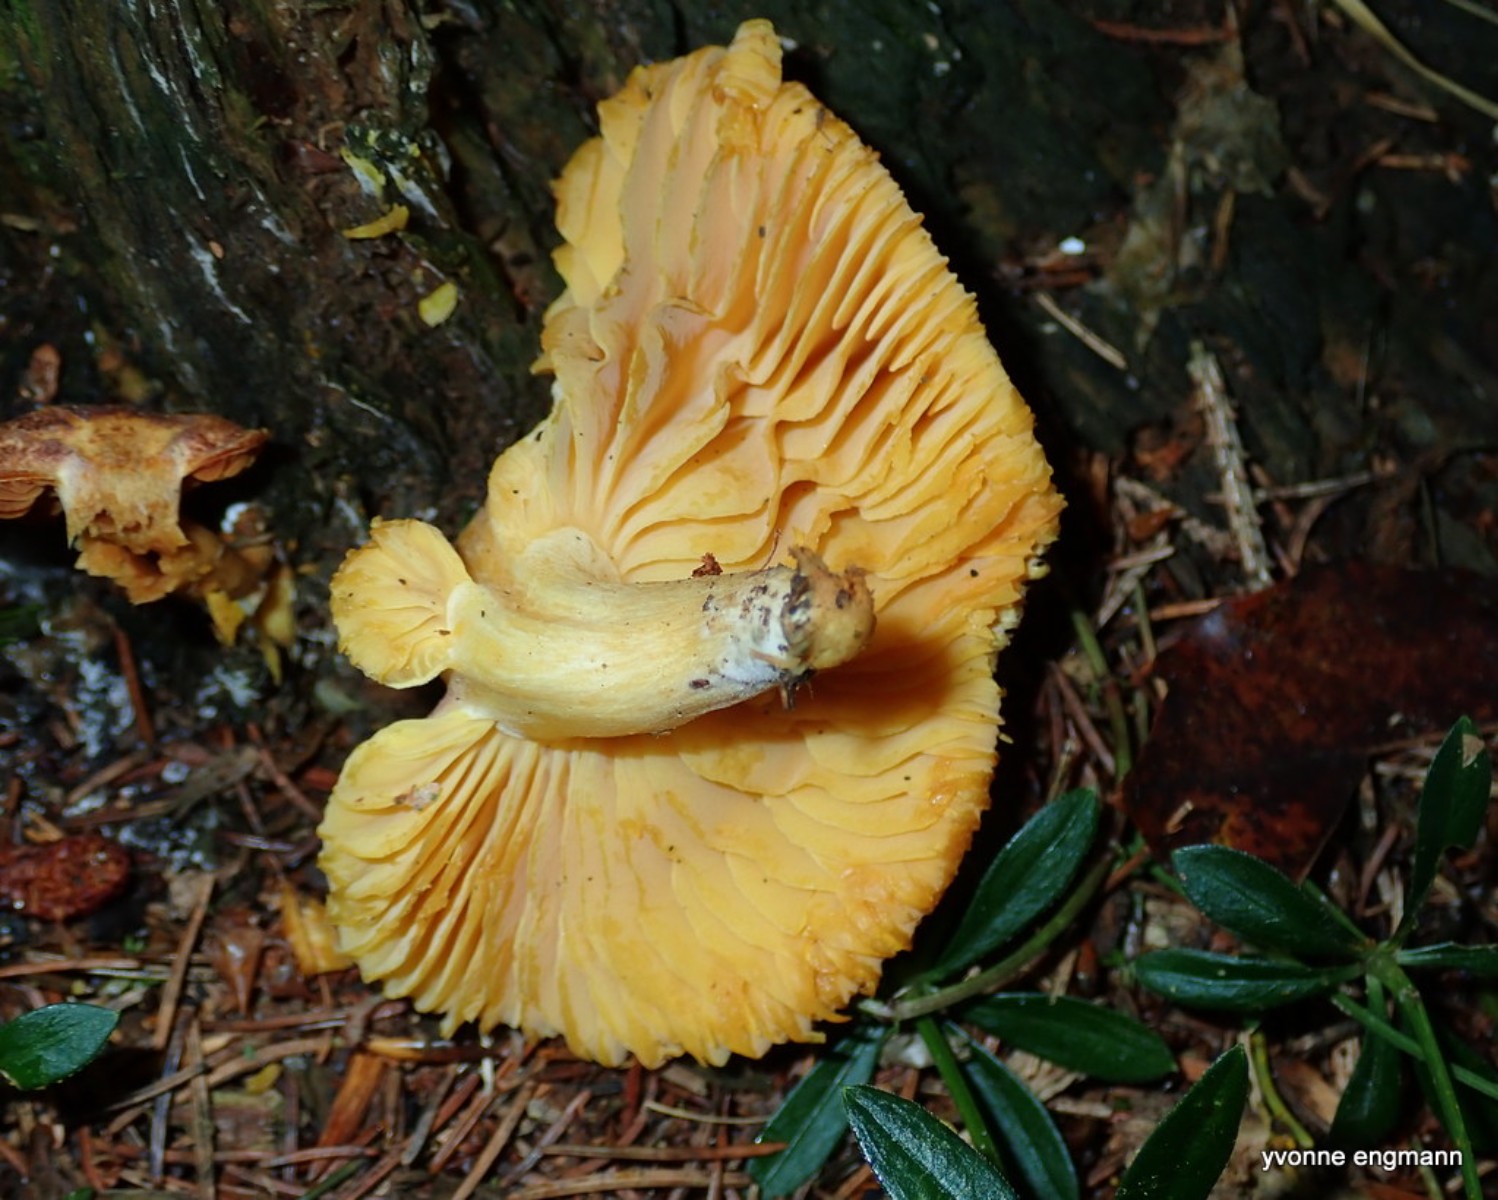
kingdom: Fungi
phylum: Basidiomycota
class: Agaricomycetes
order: Agaricales
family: Tricholomataceae
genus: Tricholomopsis
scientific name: Tricholomopsis rutilans
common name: purpur-væbnerhat
